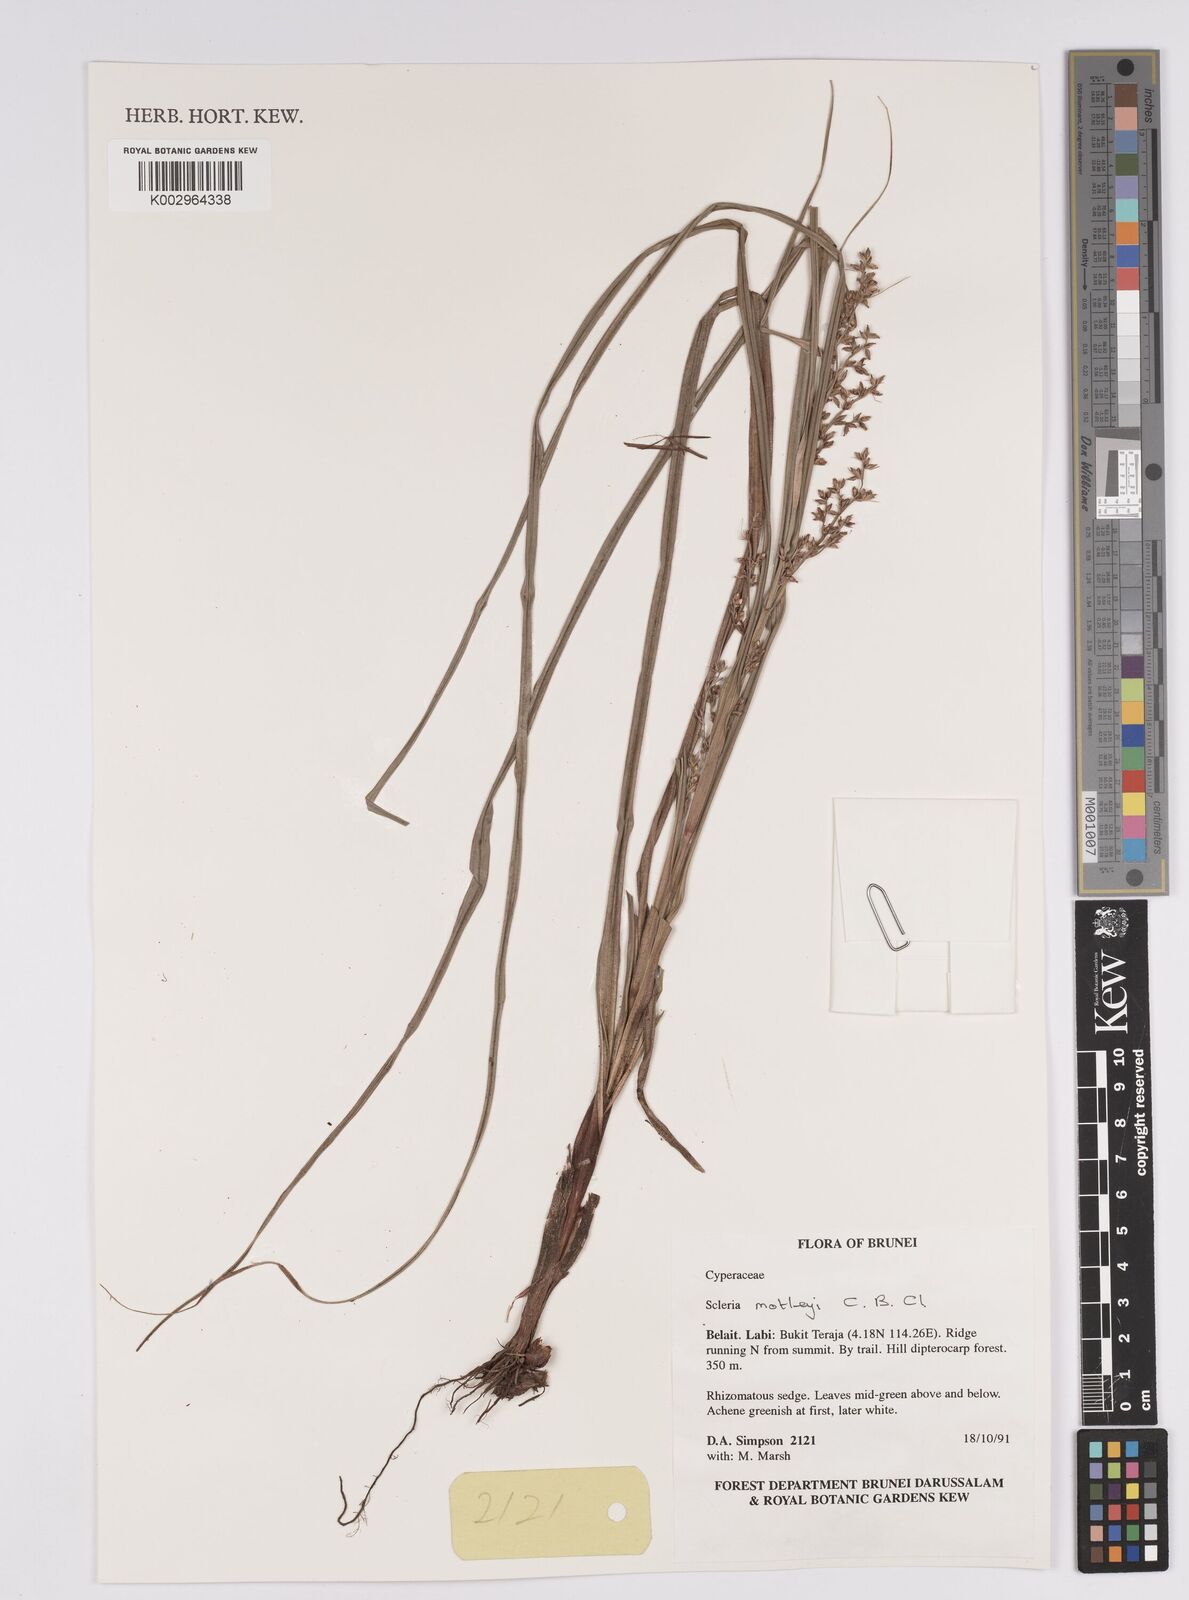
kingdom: Plantae
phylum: Tracheophyta
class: Liliopsida
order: Poales
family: Cyperaceae
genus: Scleria
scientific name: Scleria motleyi
